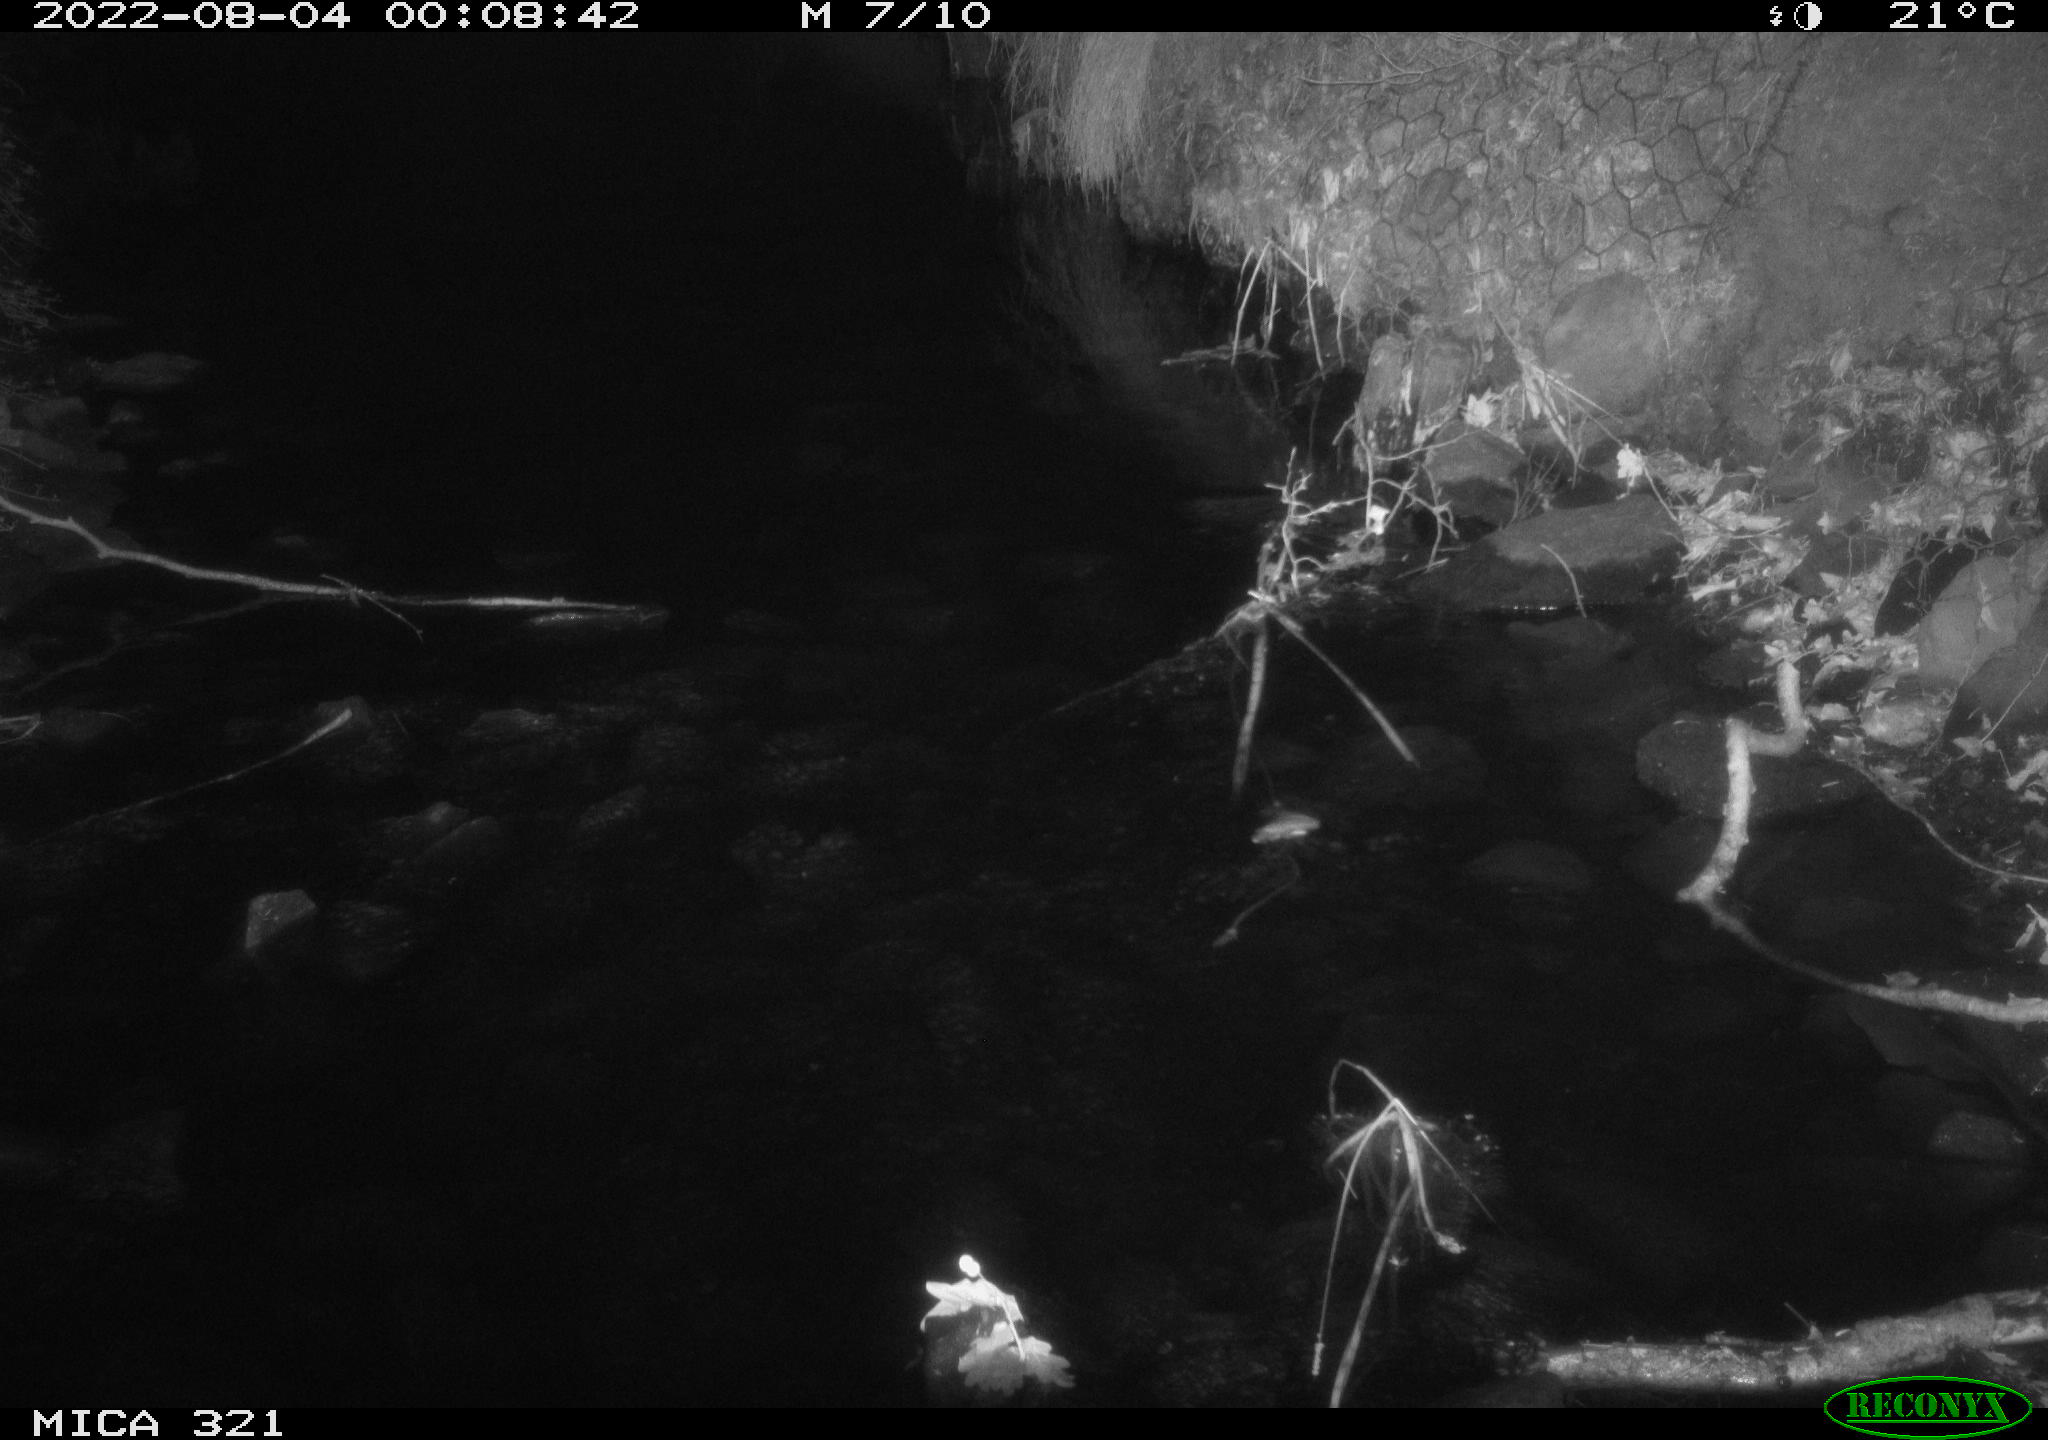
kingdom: Animalia
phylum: Chordata
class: Mammalia
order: Rodentia
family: Muridae
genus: Rattus
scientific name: Rattus norvegicus
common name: Brown rat
